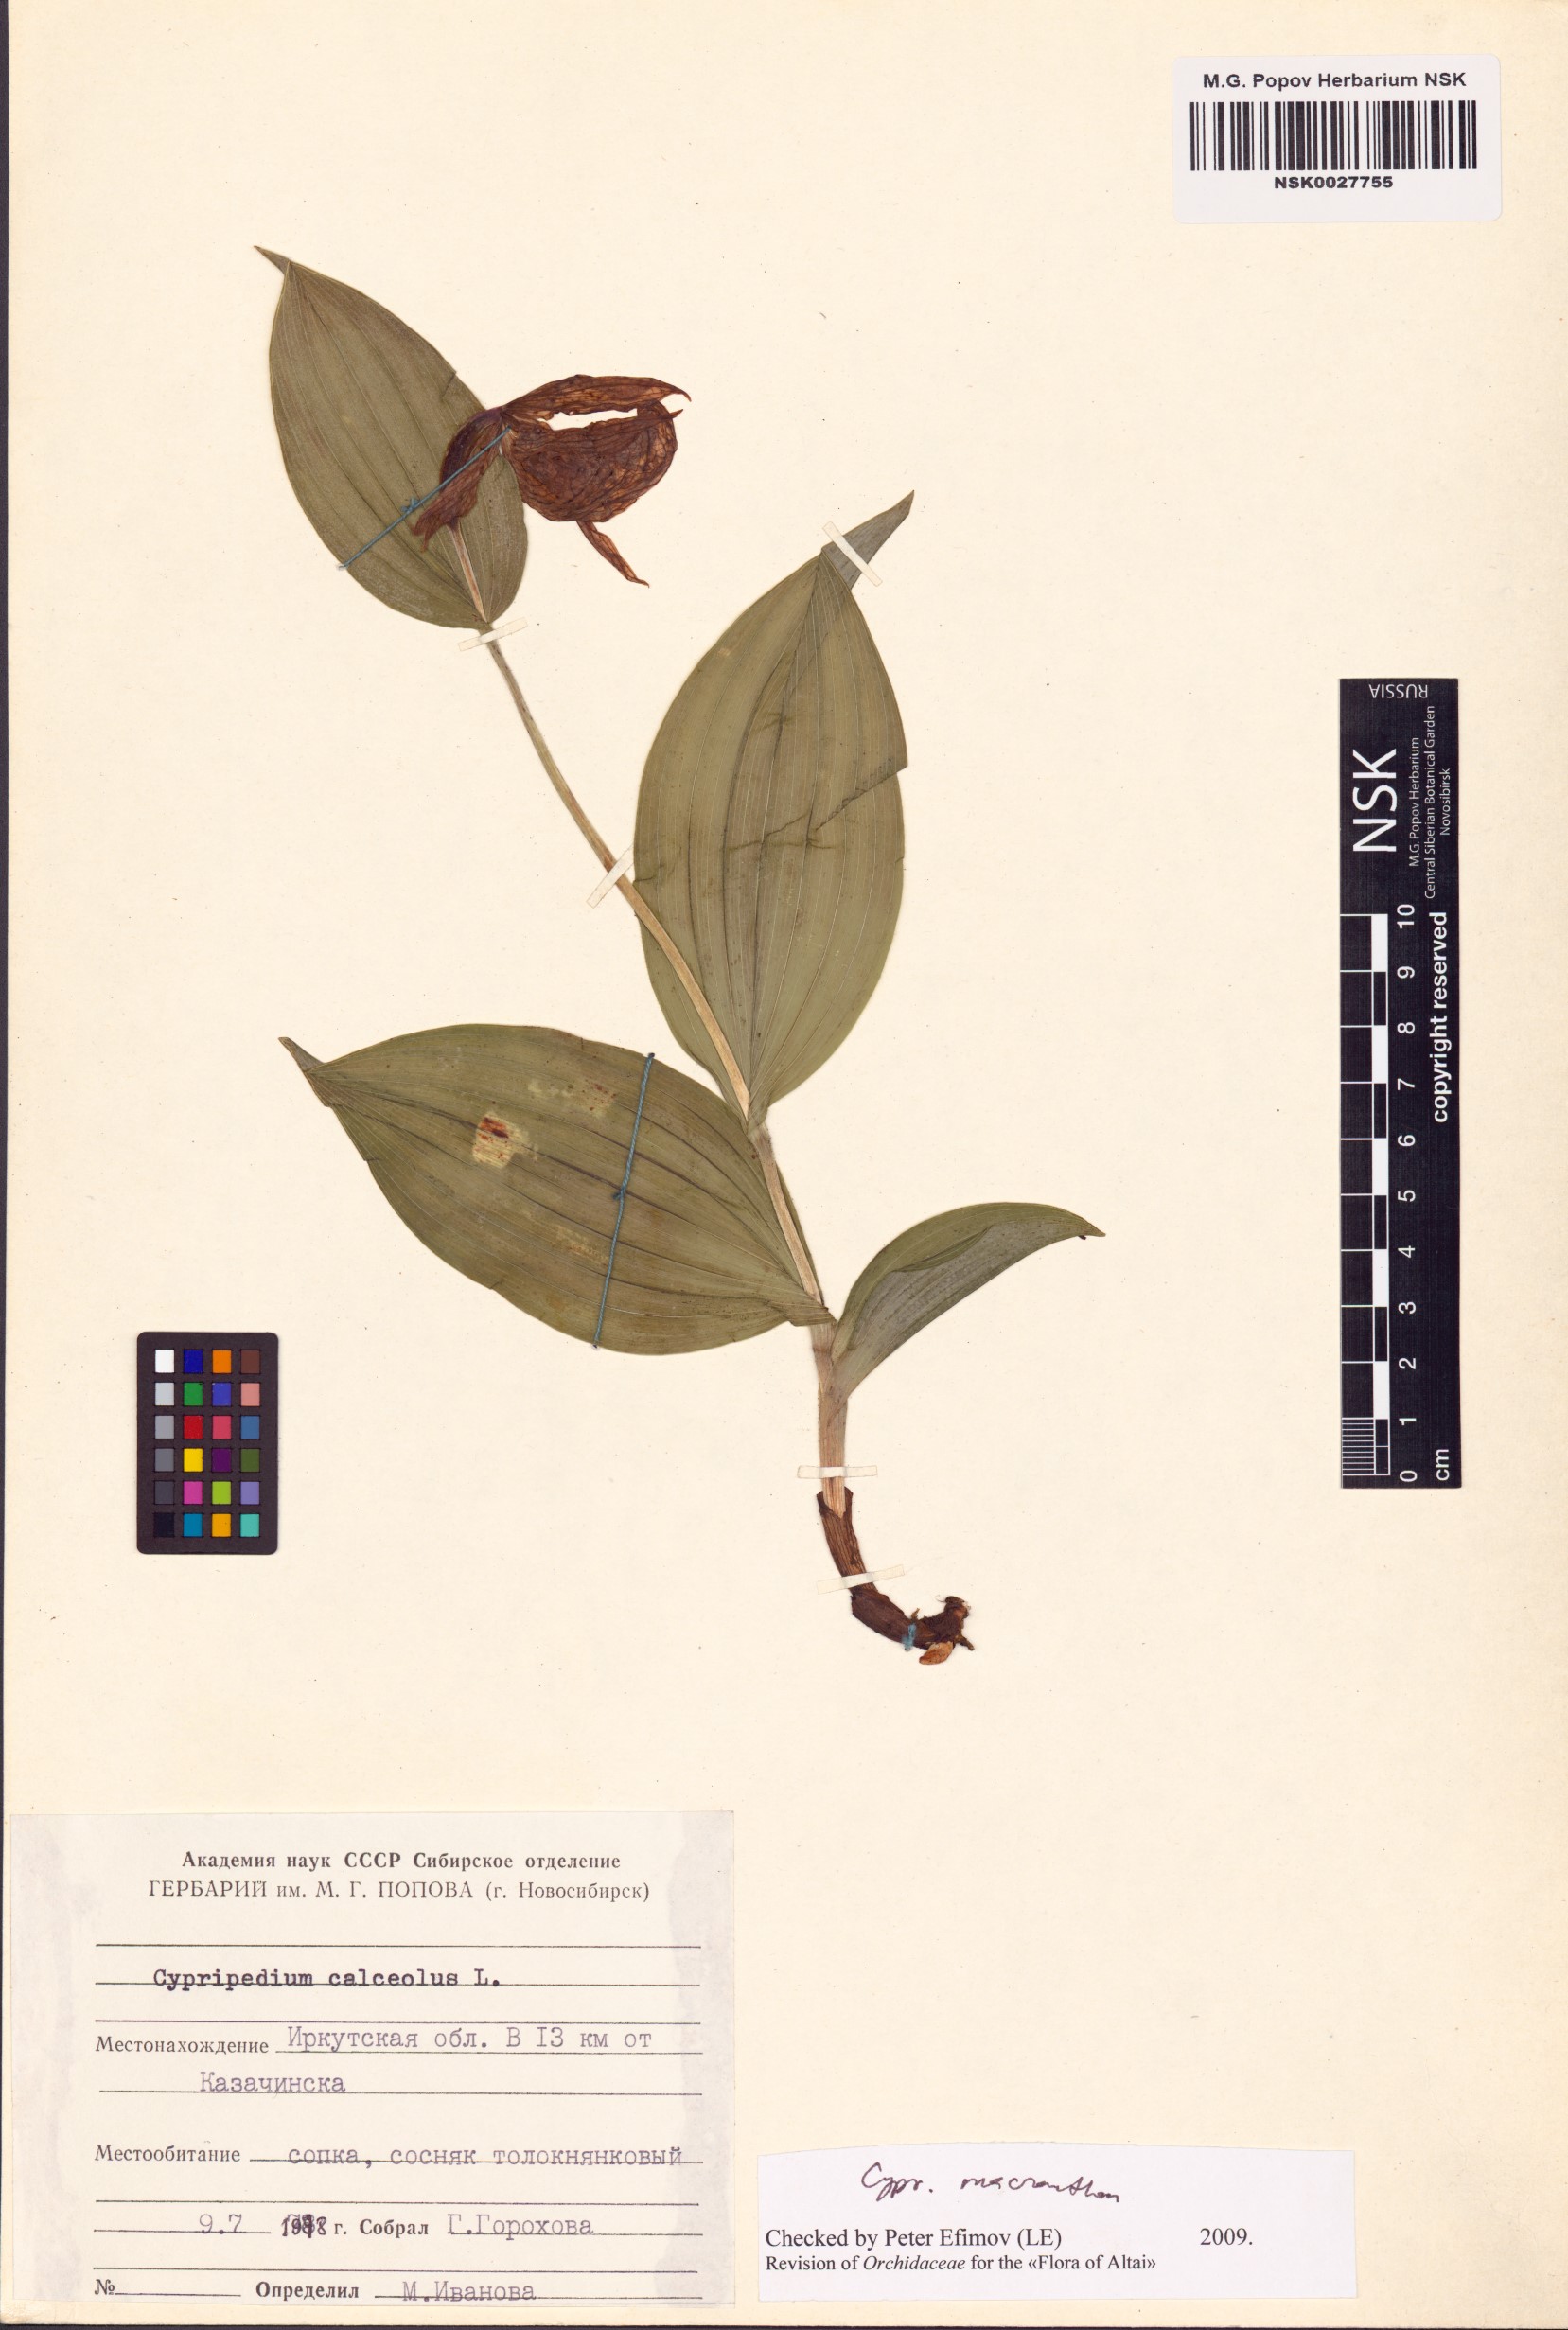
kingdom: Plantae
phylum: Tracheophyta
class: Liliopsida
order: Asparagales
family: Orchidaceae
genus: Cypripedium
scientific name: Cypripedium macranthos
